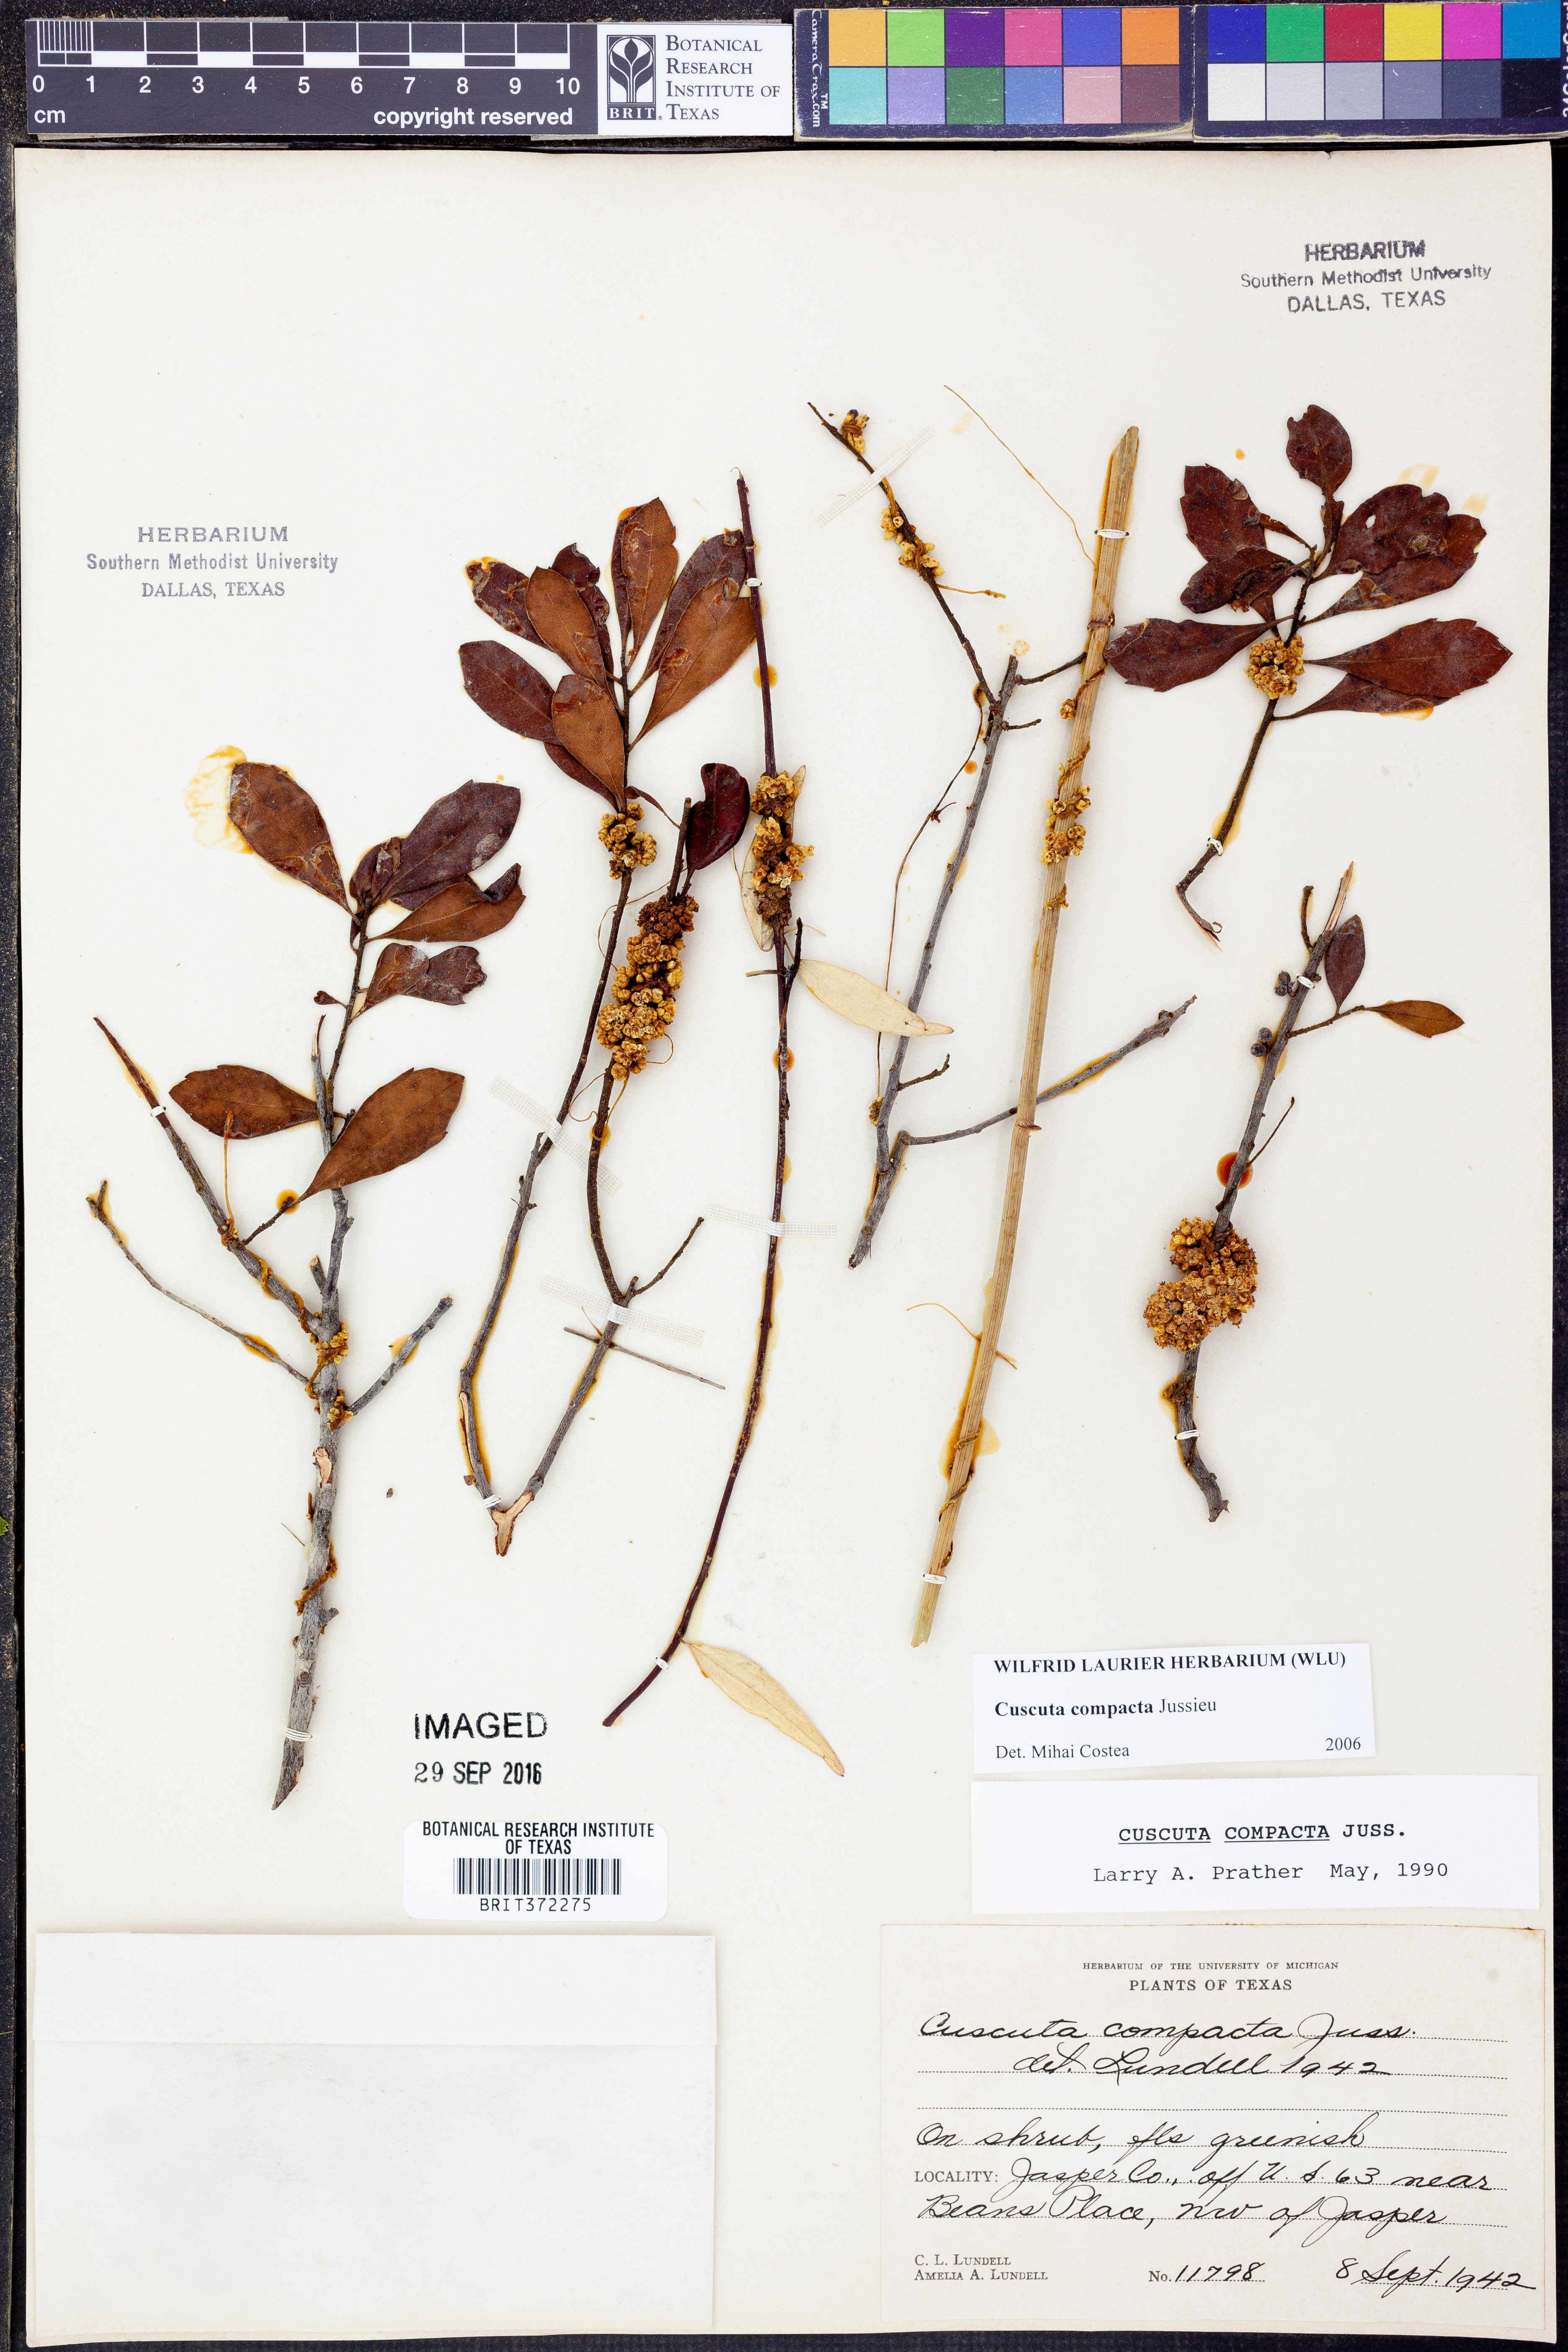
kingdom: Plantae
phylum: Tracheophyta
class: Magnoliopsida
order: Solanales
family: Convolvulaceae
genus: Cuscuta
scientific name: Cuscuta compacta
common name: Compact dodder
